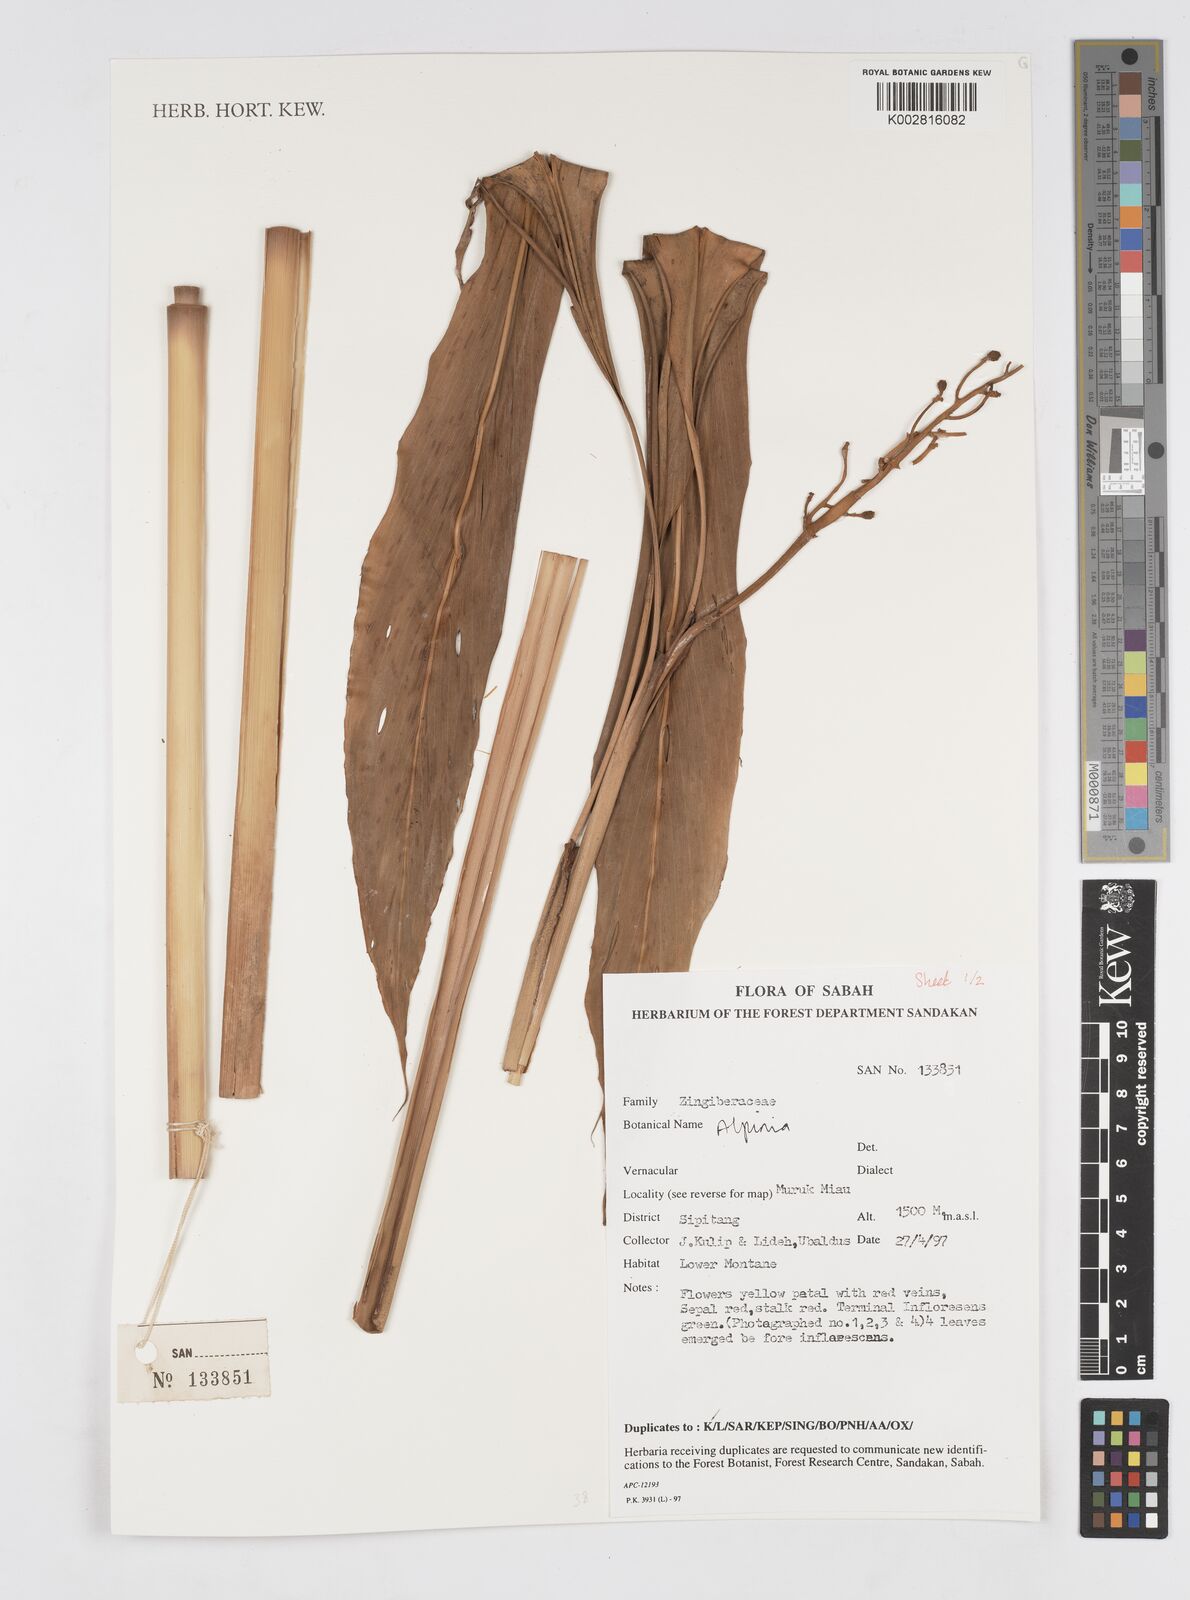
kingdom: Plantae
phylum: Tracheophyta
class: Liliopsida
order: Zingiberales
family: Zingiberaceae
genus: Alpinia
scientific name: Alpinia
